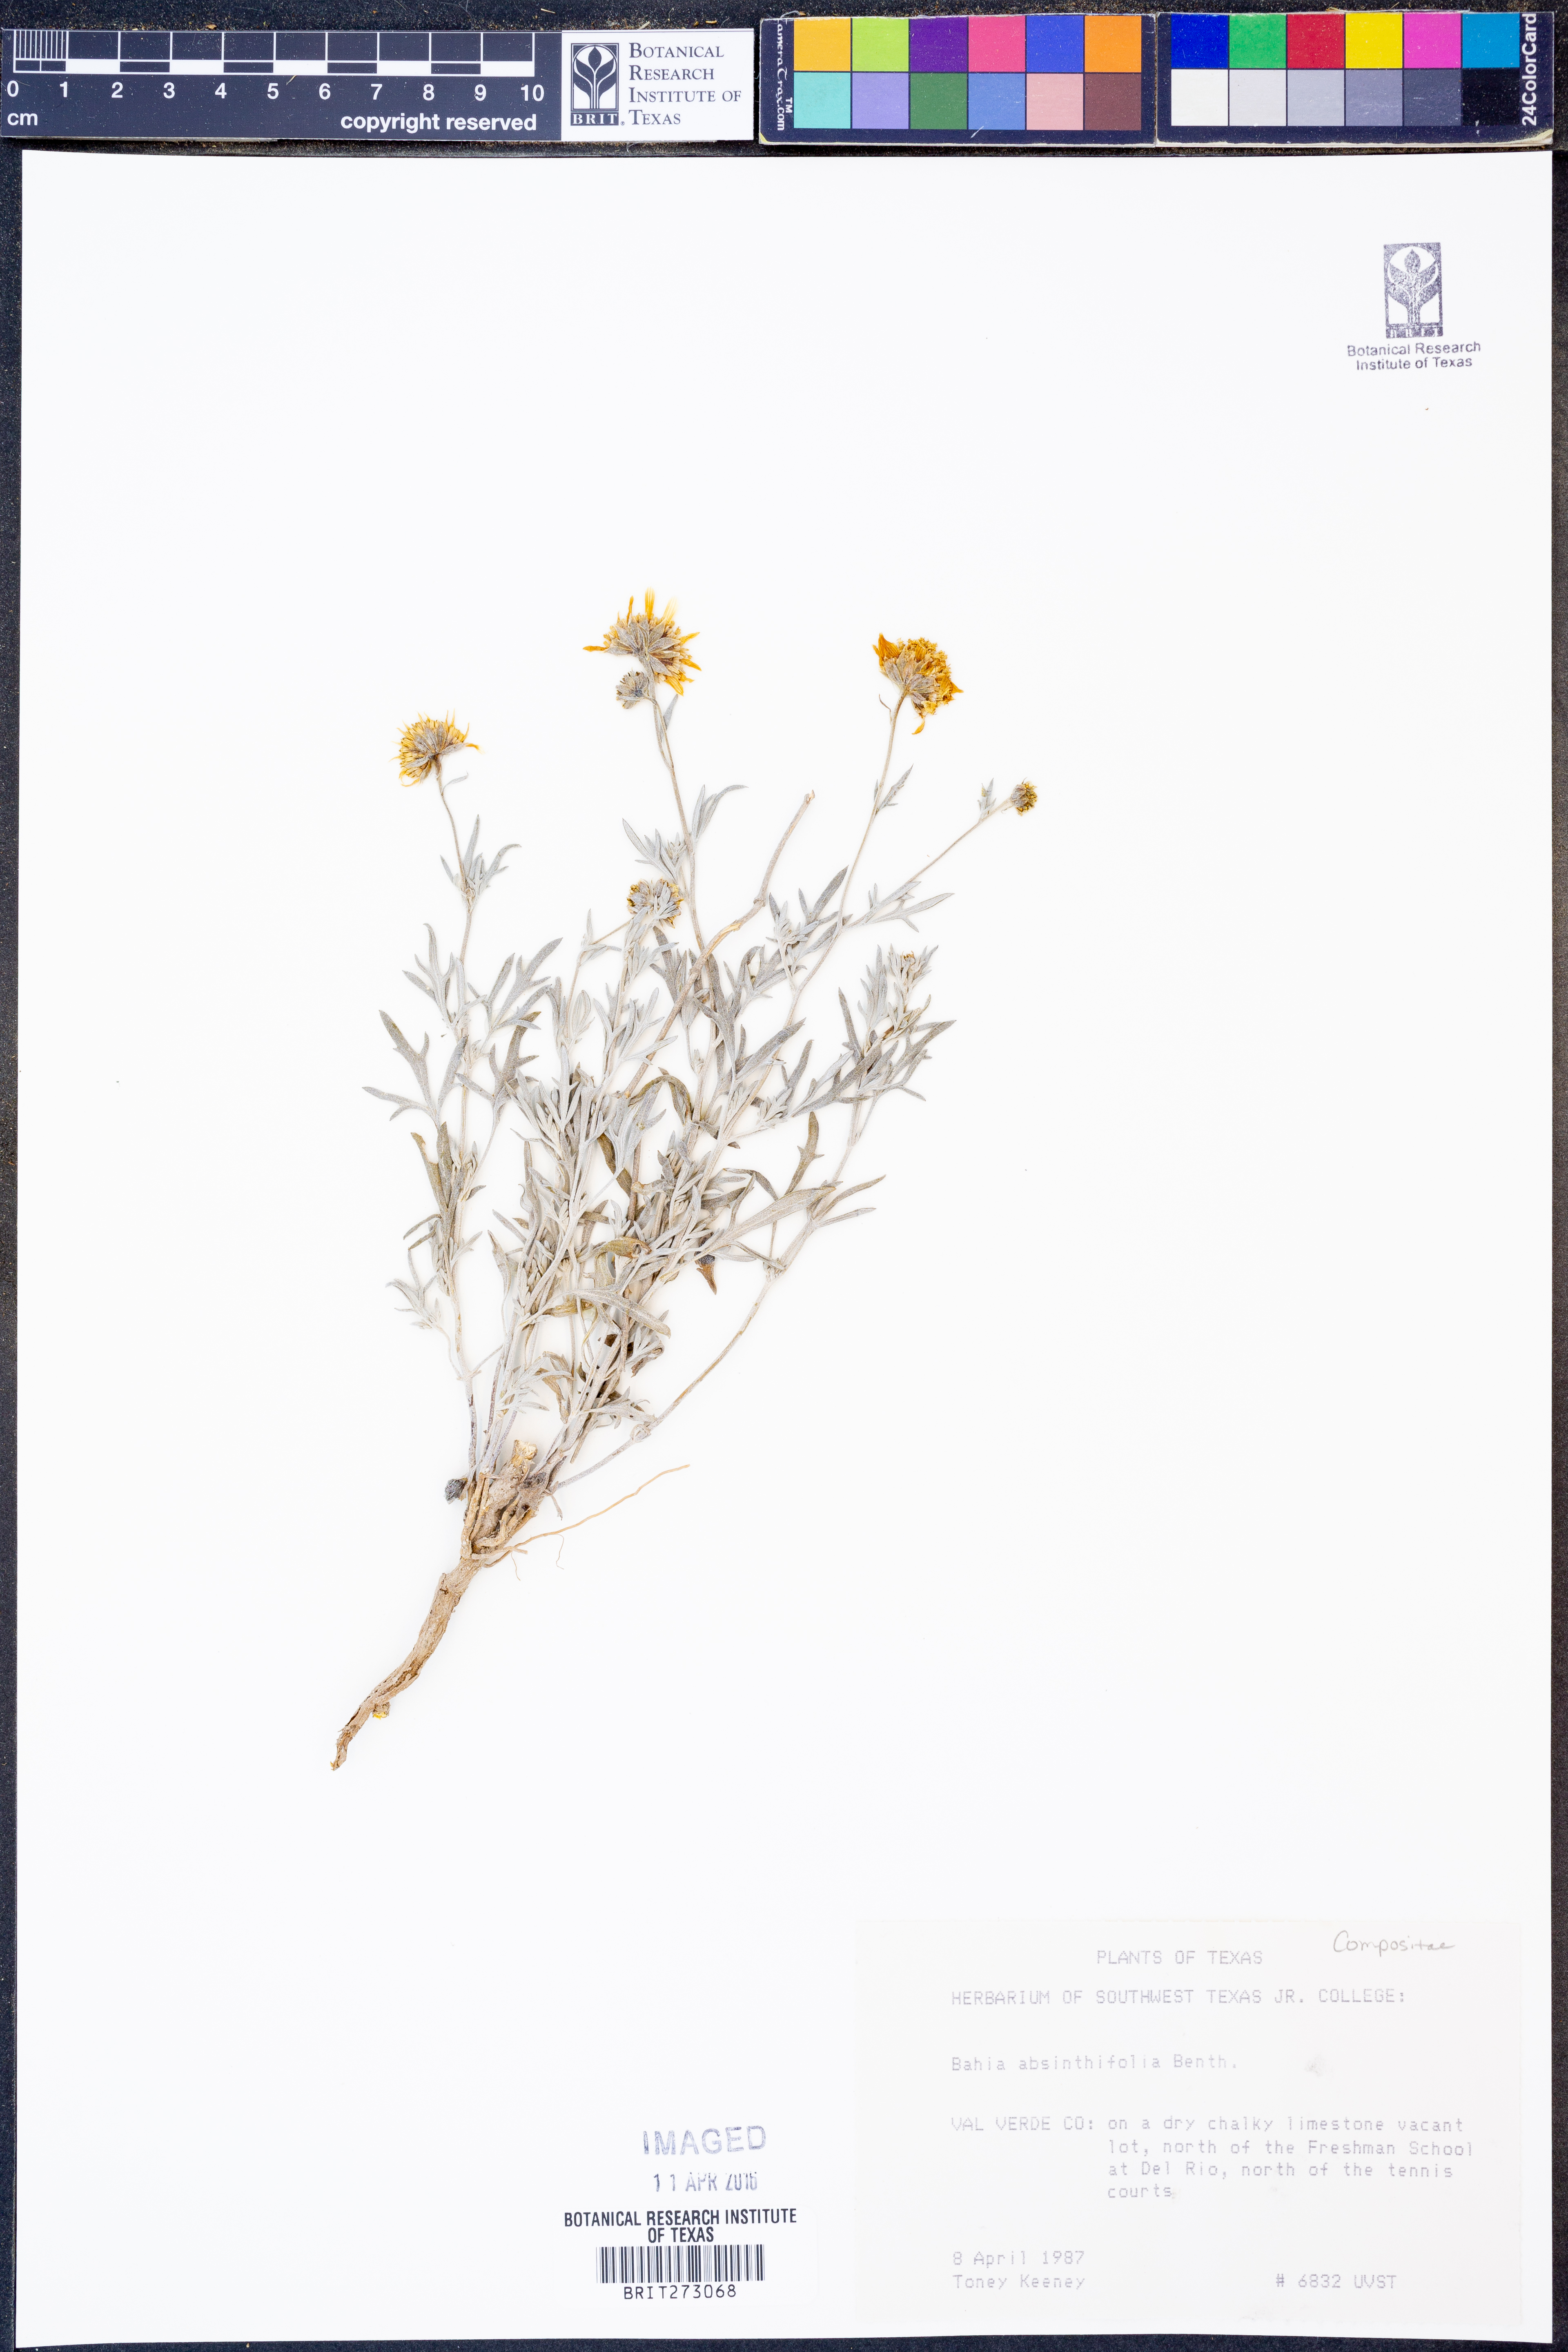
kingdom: Plantae
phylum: Tracheophyta
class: Magnoliopsida
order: Asterales
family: Asteraceae
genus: Picradeniopsis
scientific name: Picradeniopsis absinthifolia
